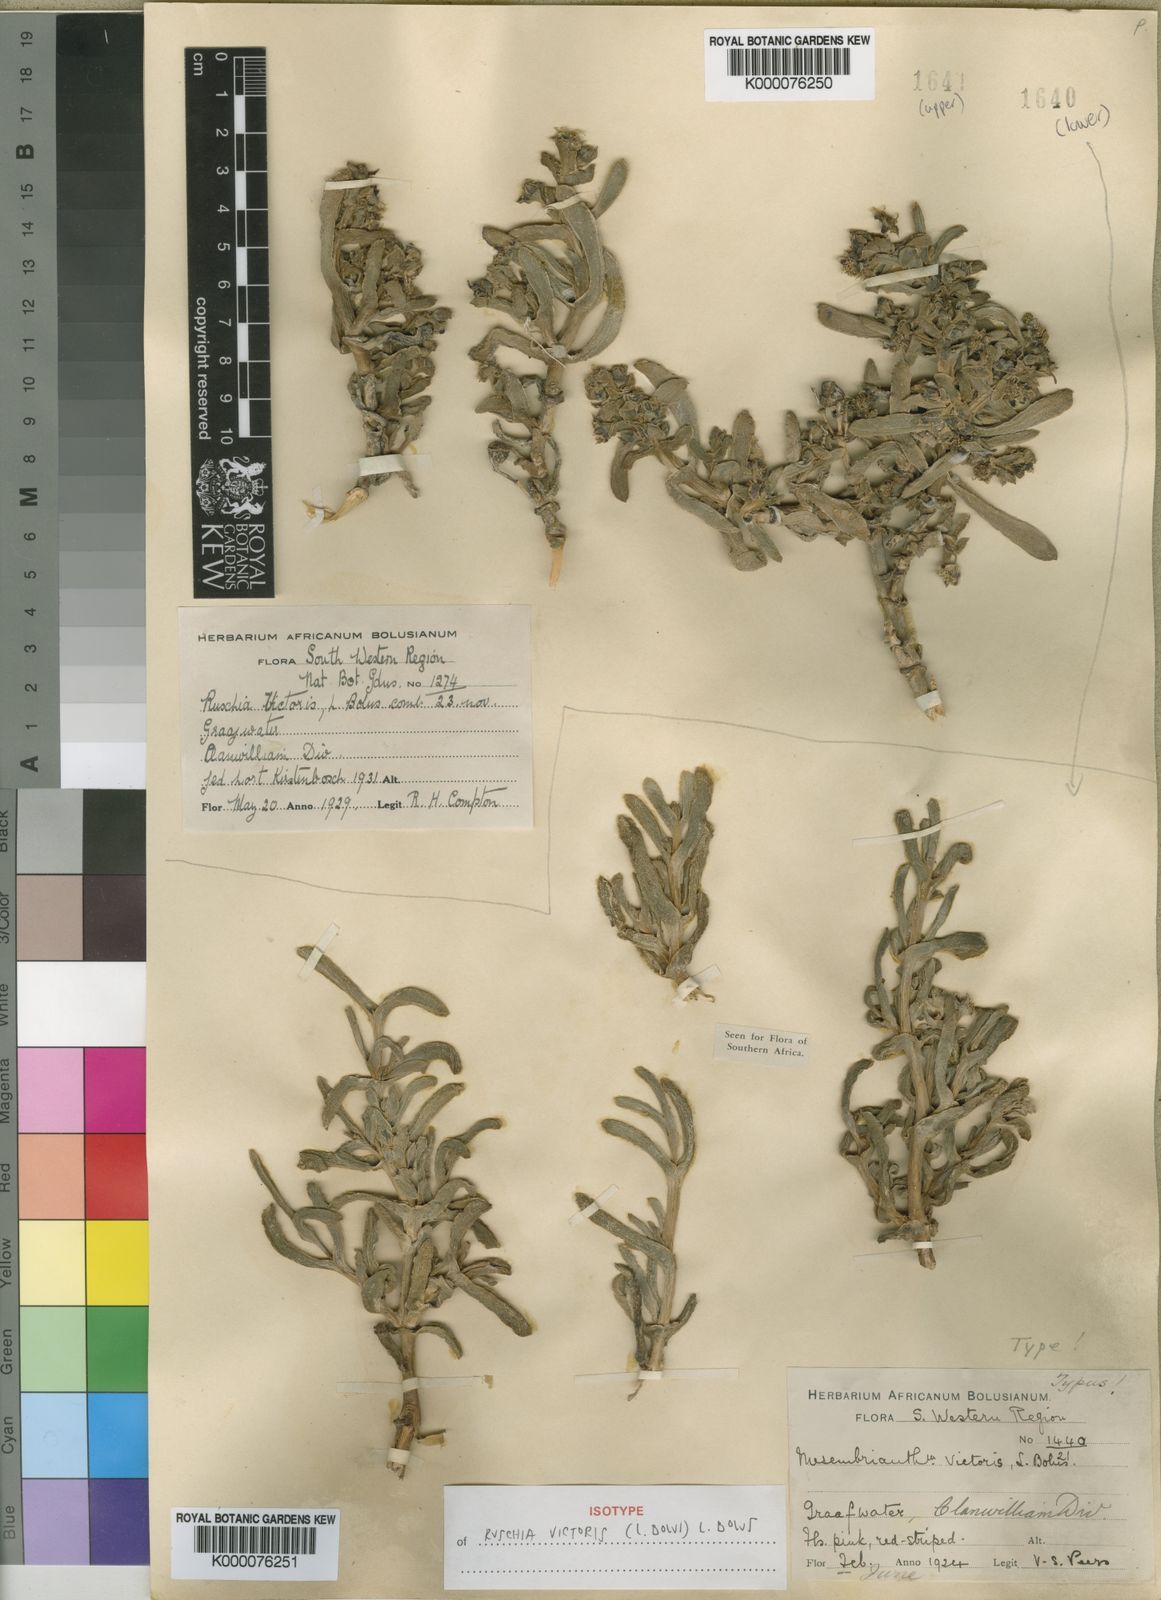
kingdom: Plantae
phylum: Tracheophyta
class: Magnoliopsida
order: Caryophyllales
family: Aizoaceae
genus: Ruschia
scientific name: Ruschia victoris
